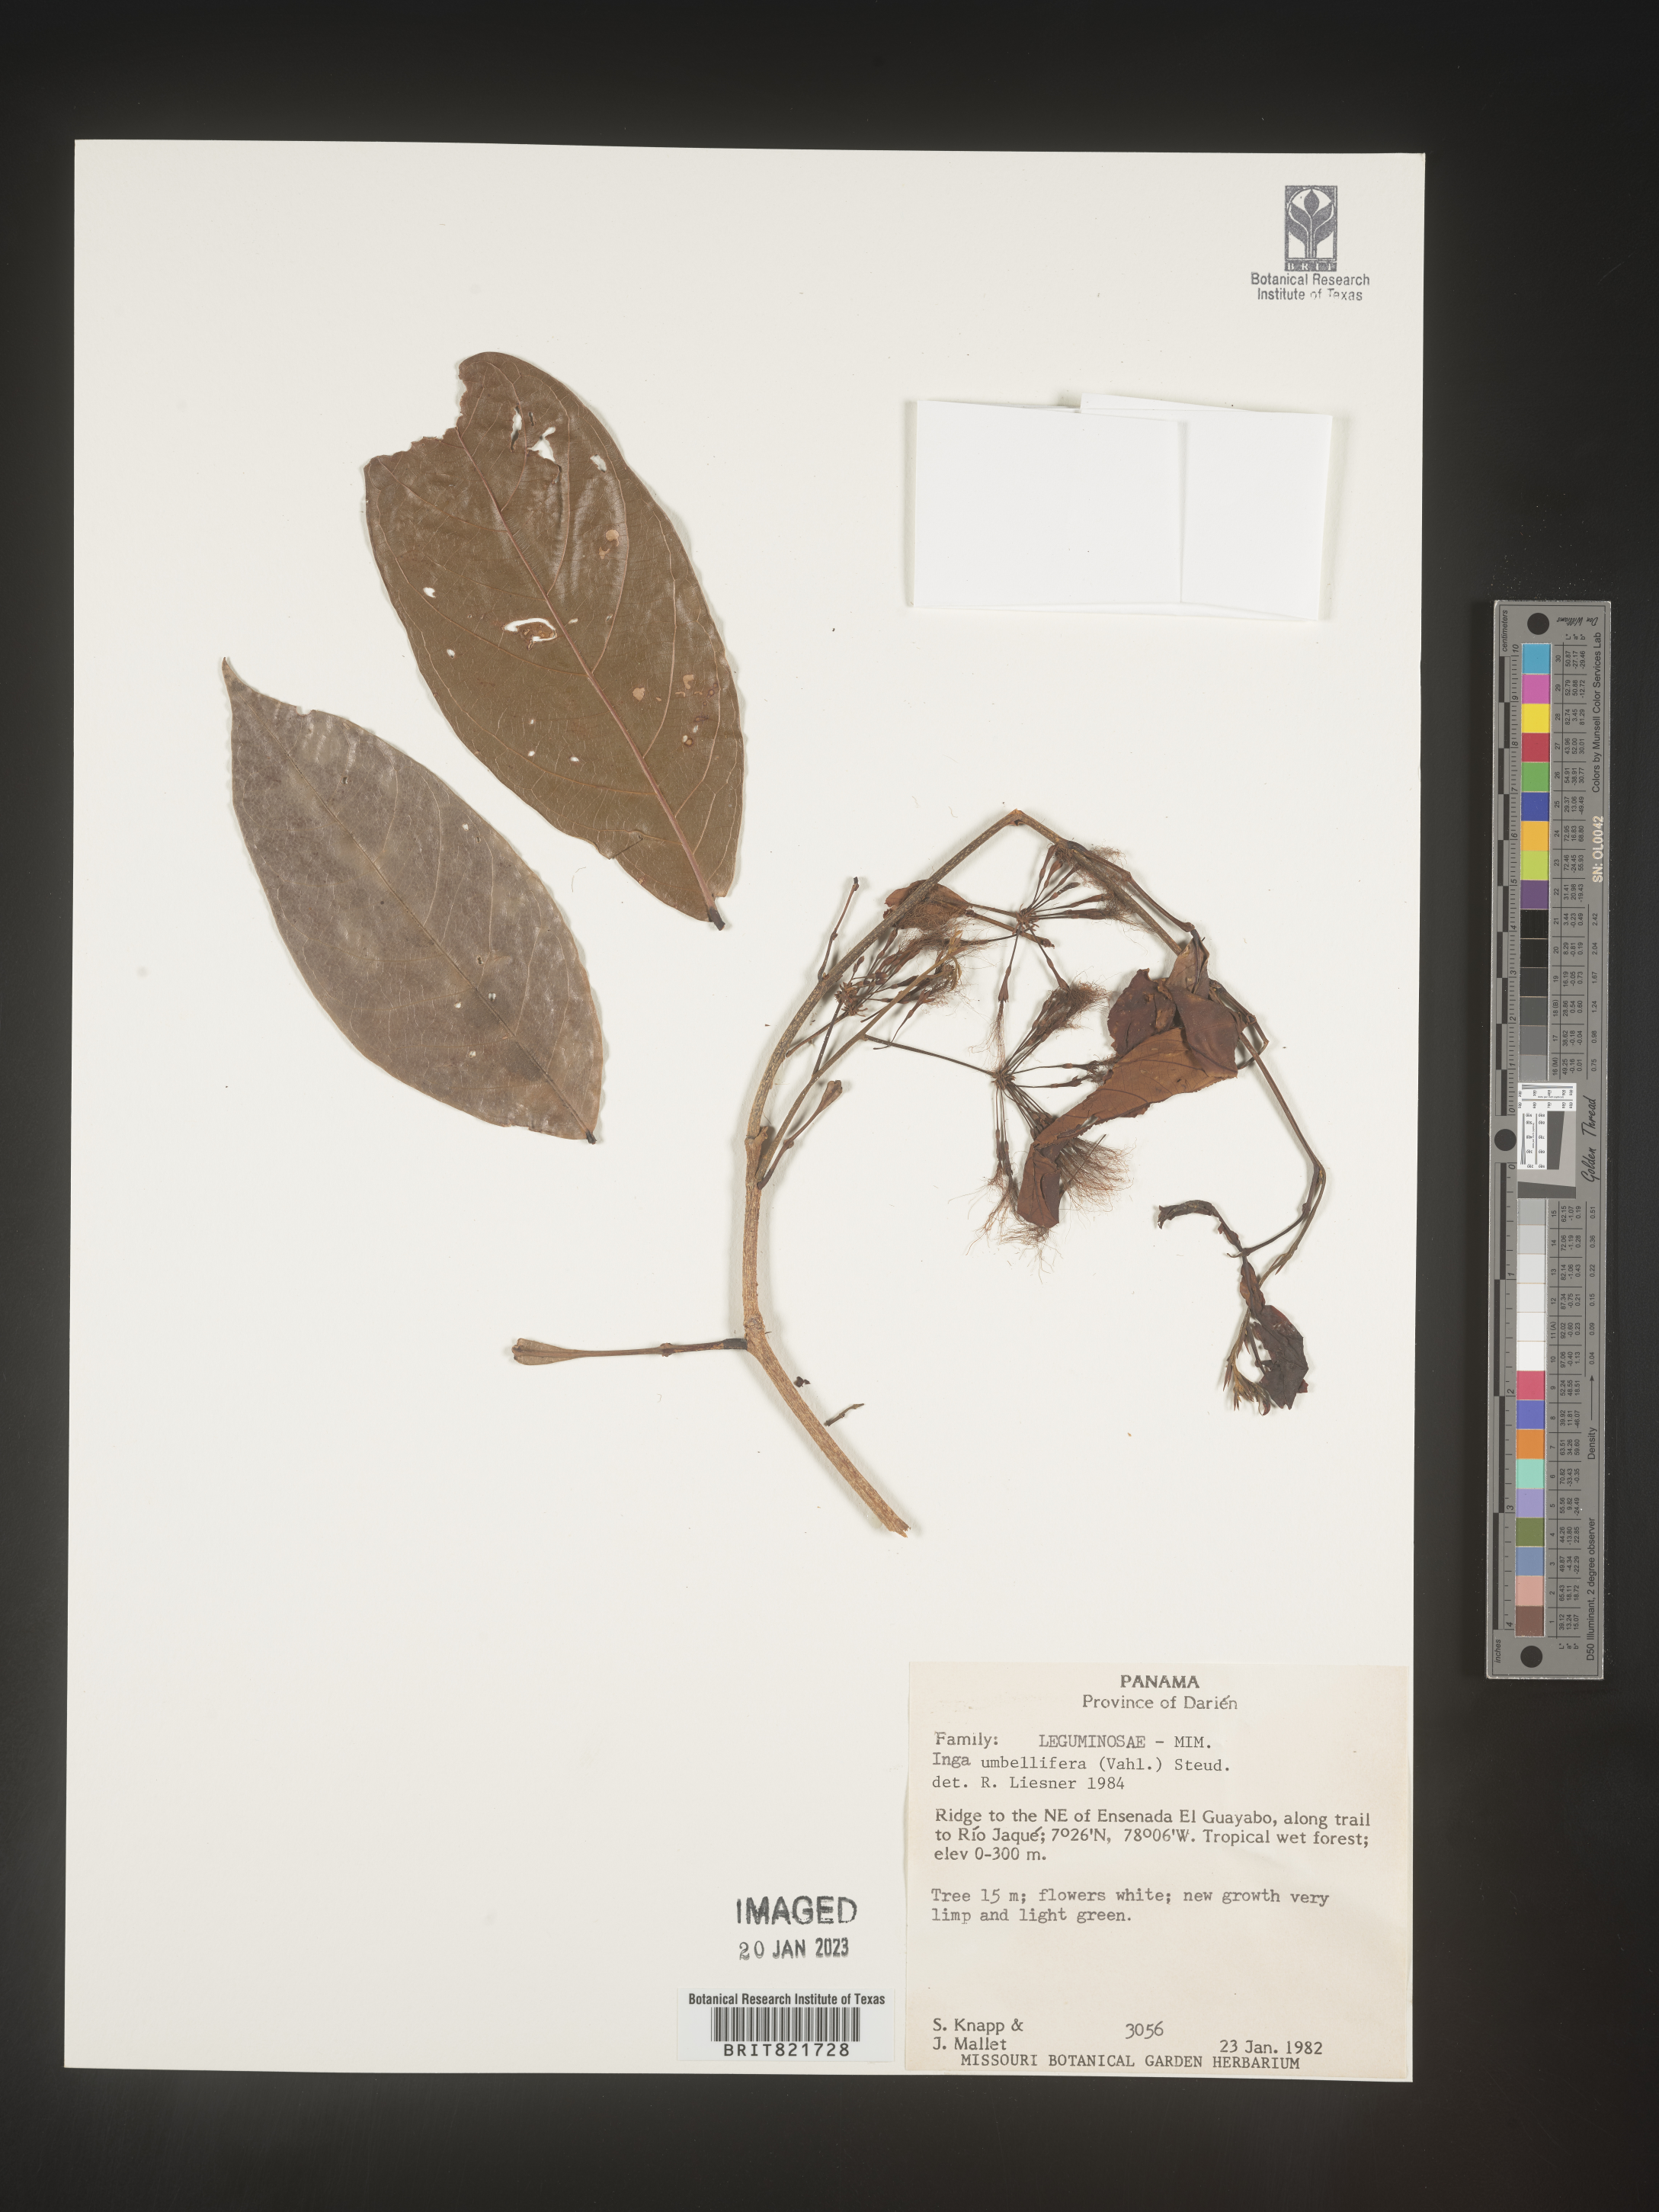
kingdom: Plantae
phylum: Tracheophyta
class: Magnoliopsida
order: Fabales
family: Fabaceae
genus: Inga
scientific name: Inga
